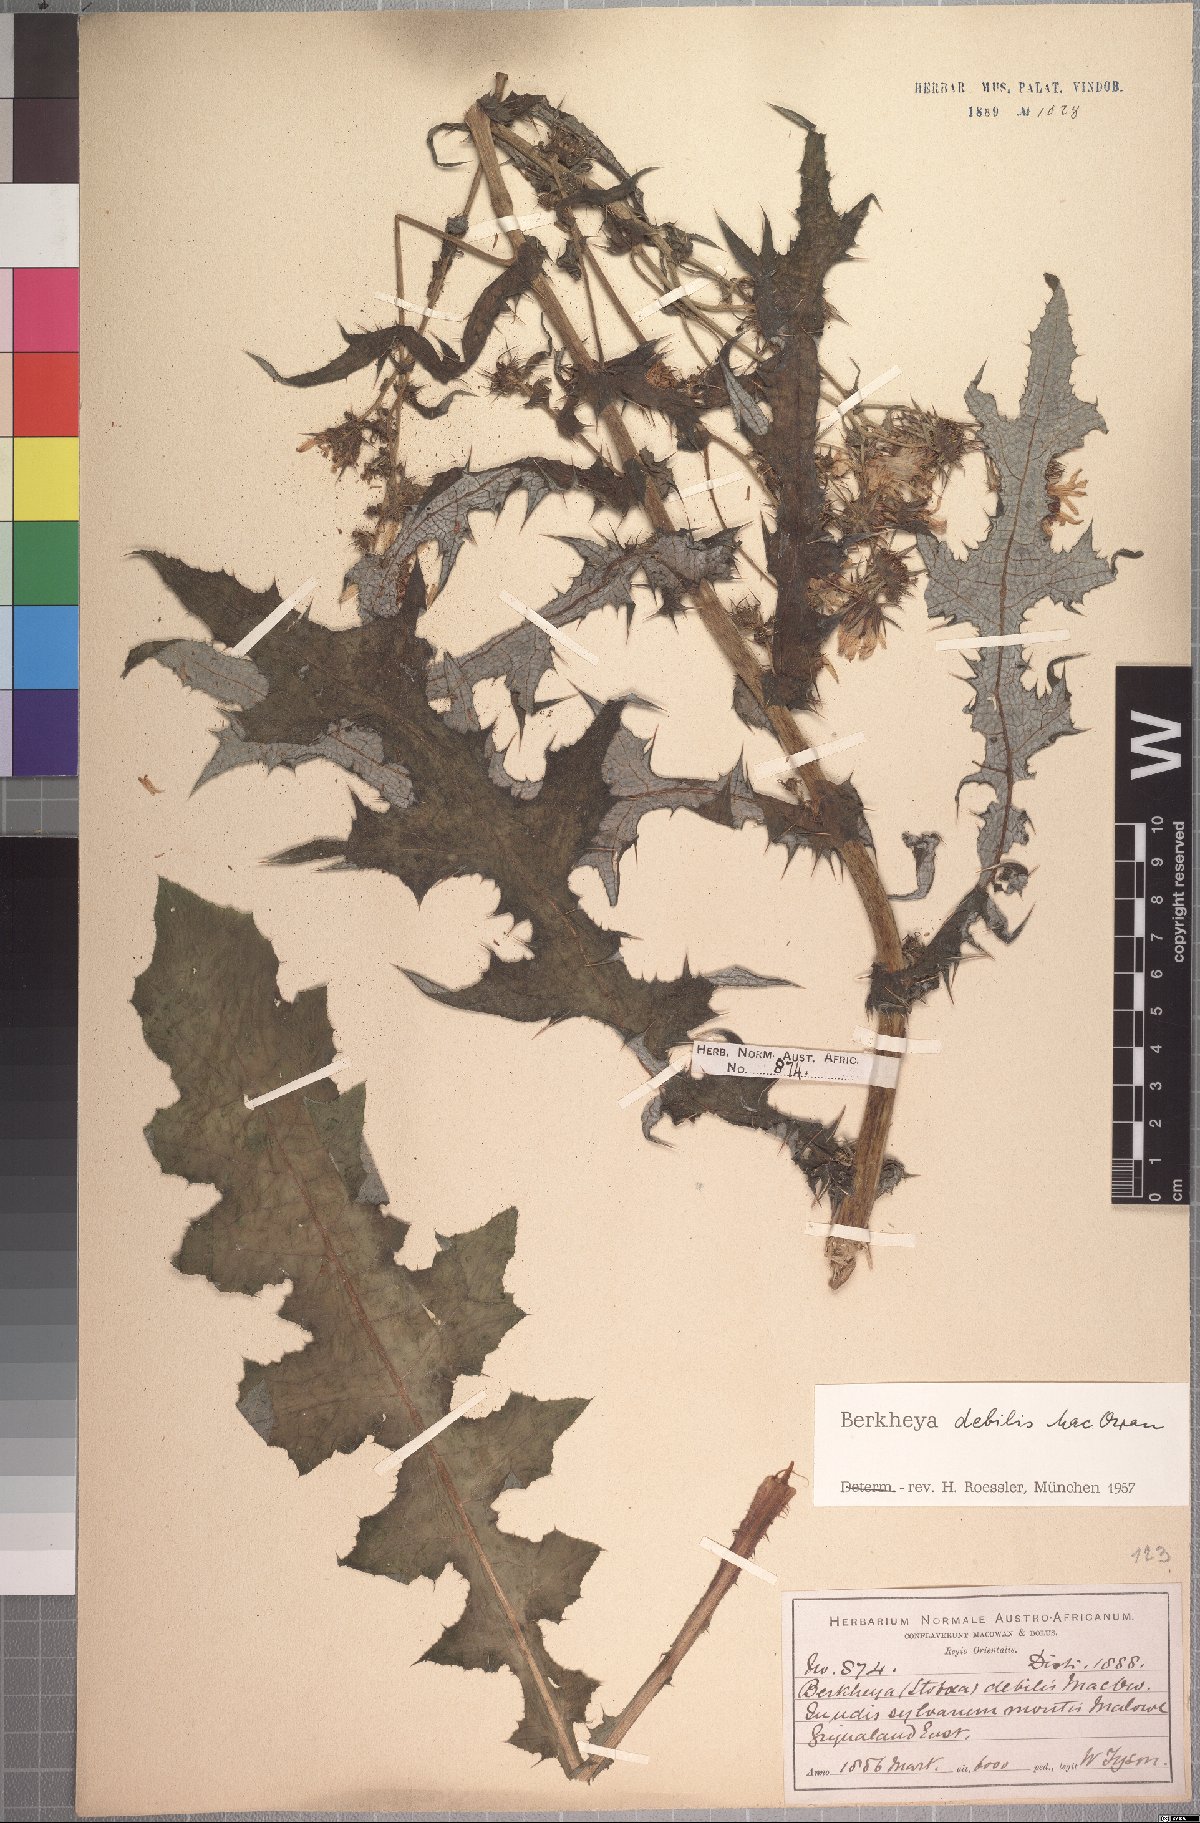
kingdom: Plantae
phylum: Tracheophyta
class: Magnoliopsida
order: Asterales
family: Asteraceae
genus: Berkheya
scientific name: Berkheya debilis
